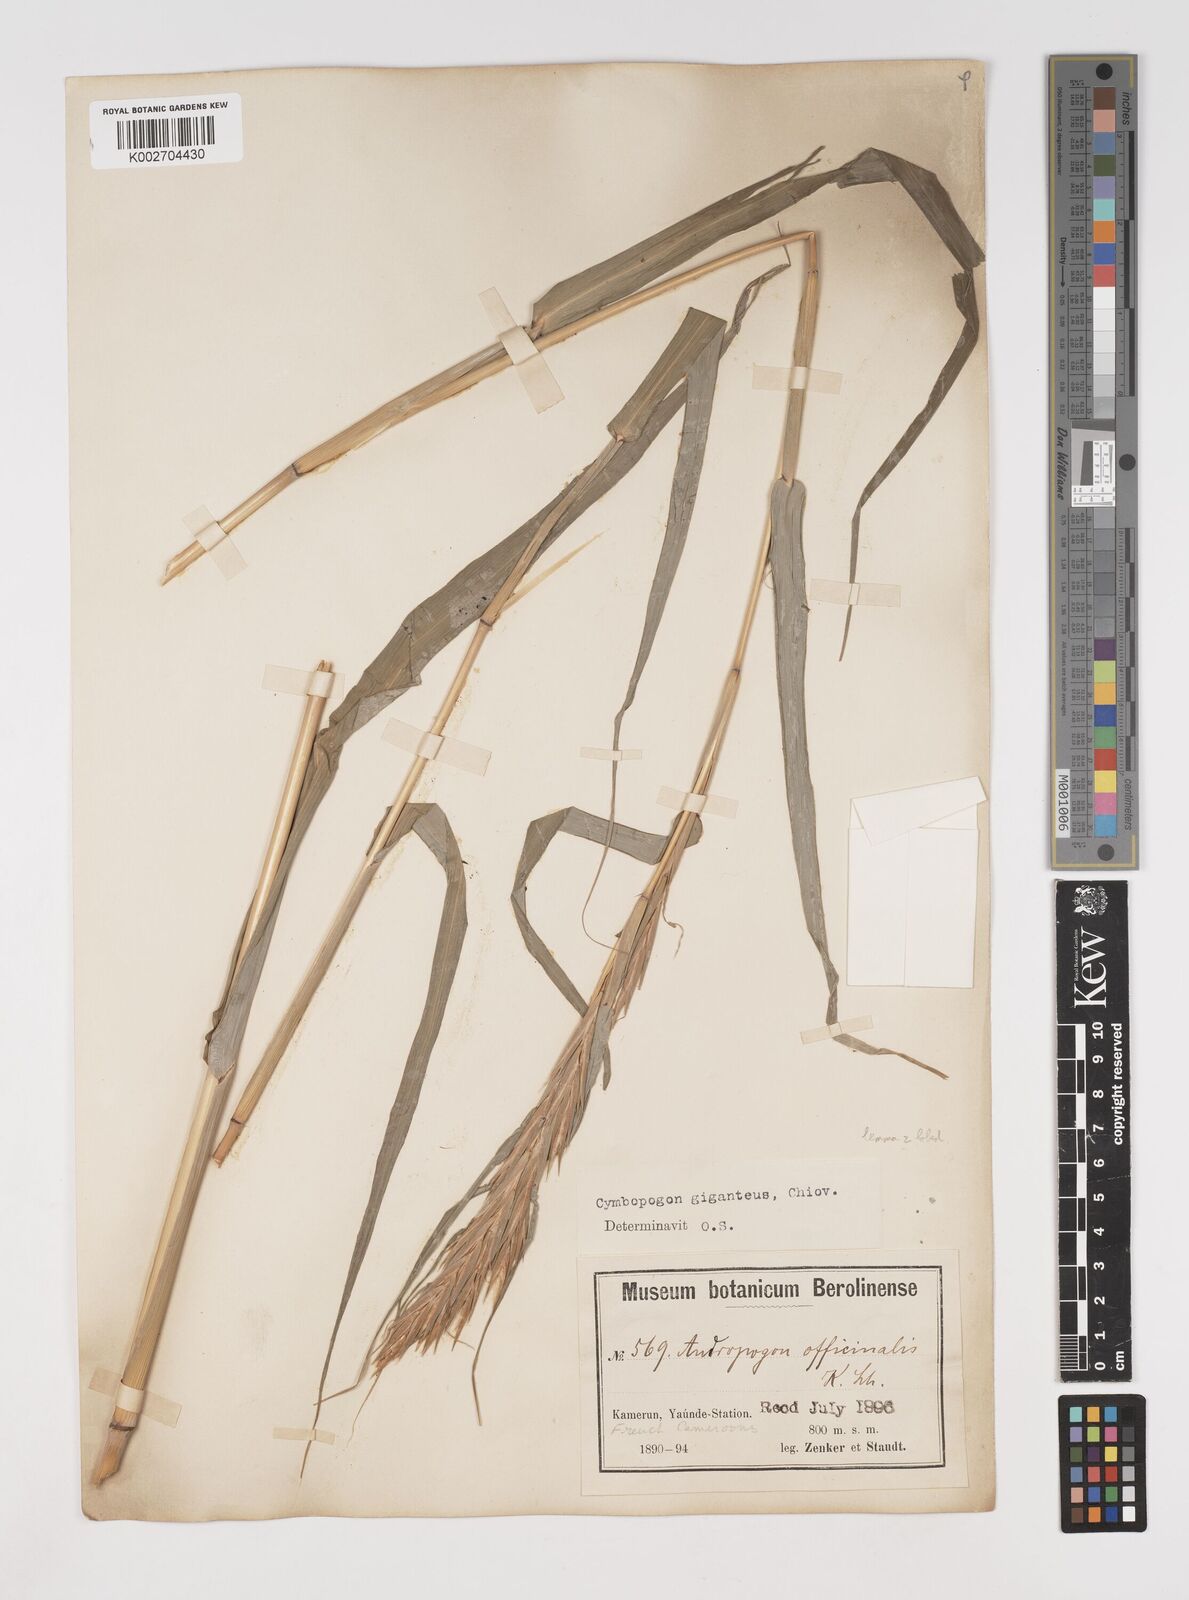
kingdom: Plantae
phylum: Tracheophyta
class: Liliopsida
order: Poales
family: Poaceae
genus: Cymbopogon
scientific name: Cymbopogon densiflorus
